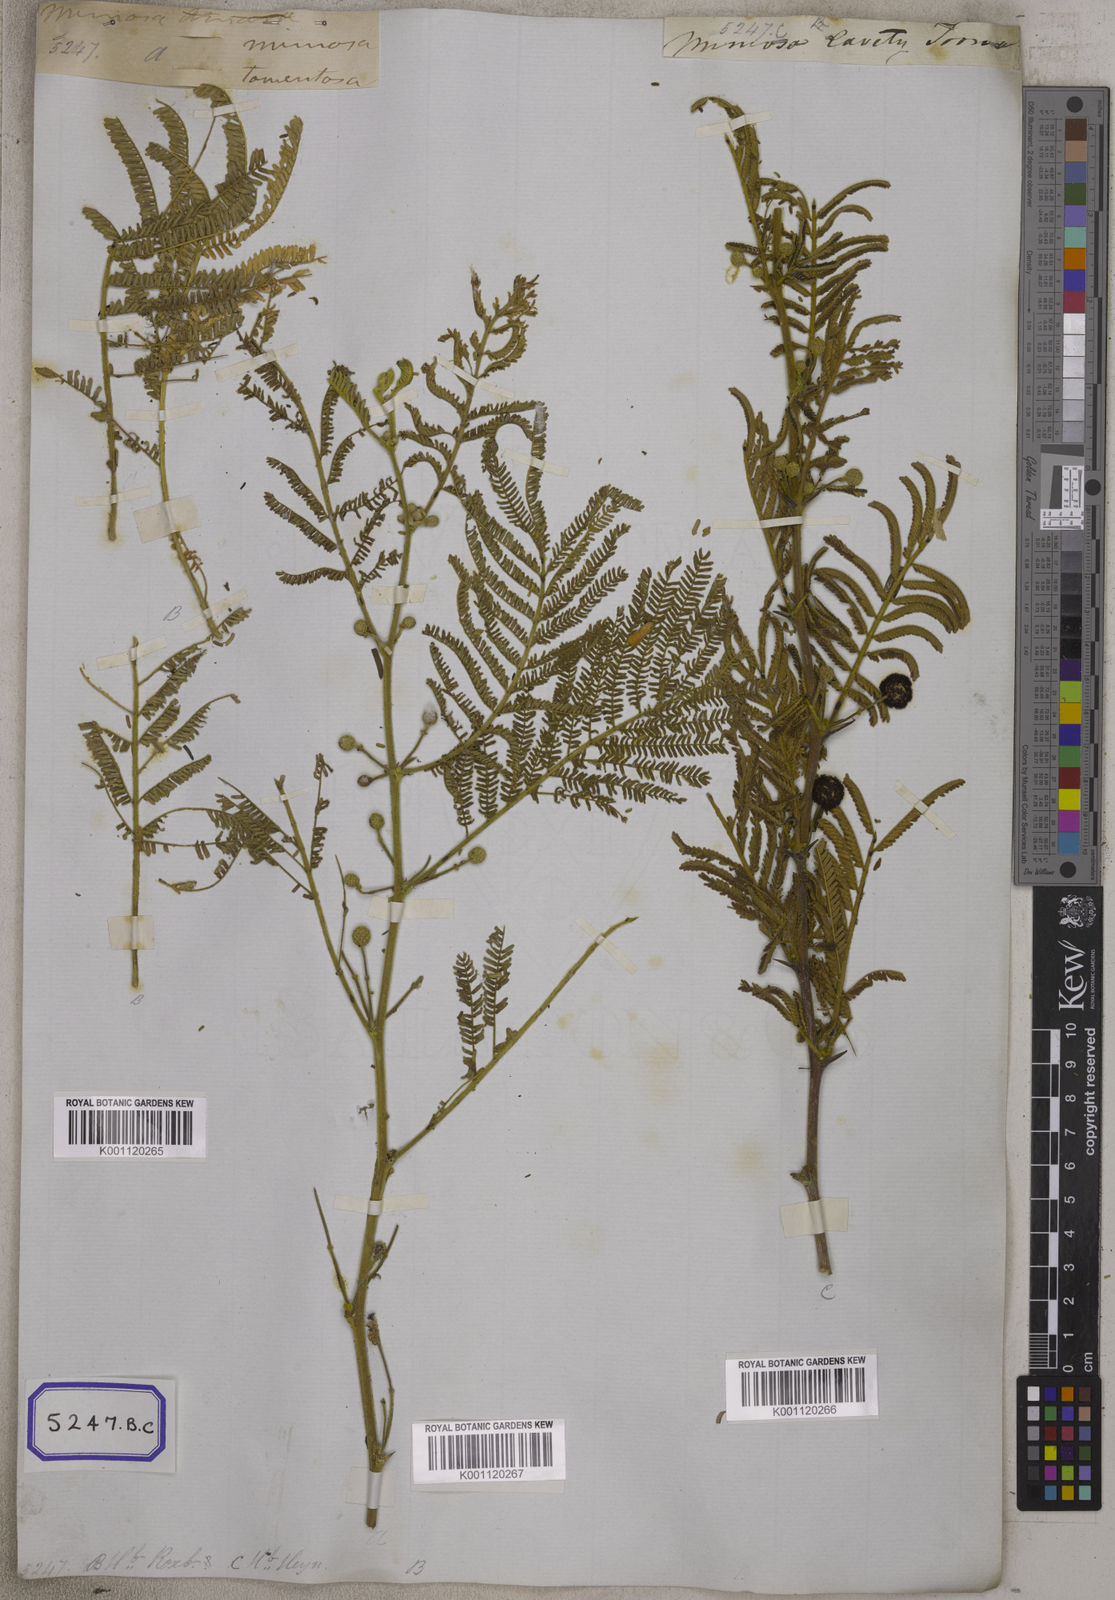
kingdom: Plantae
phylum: Tracheophyta
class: Magnoliopsida
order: Fabales
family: Fabaceae
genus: Vachellia
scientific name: Vachellia tomentosa
